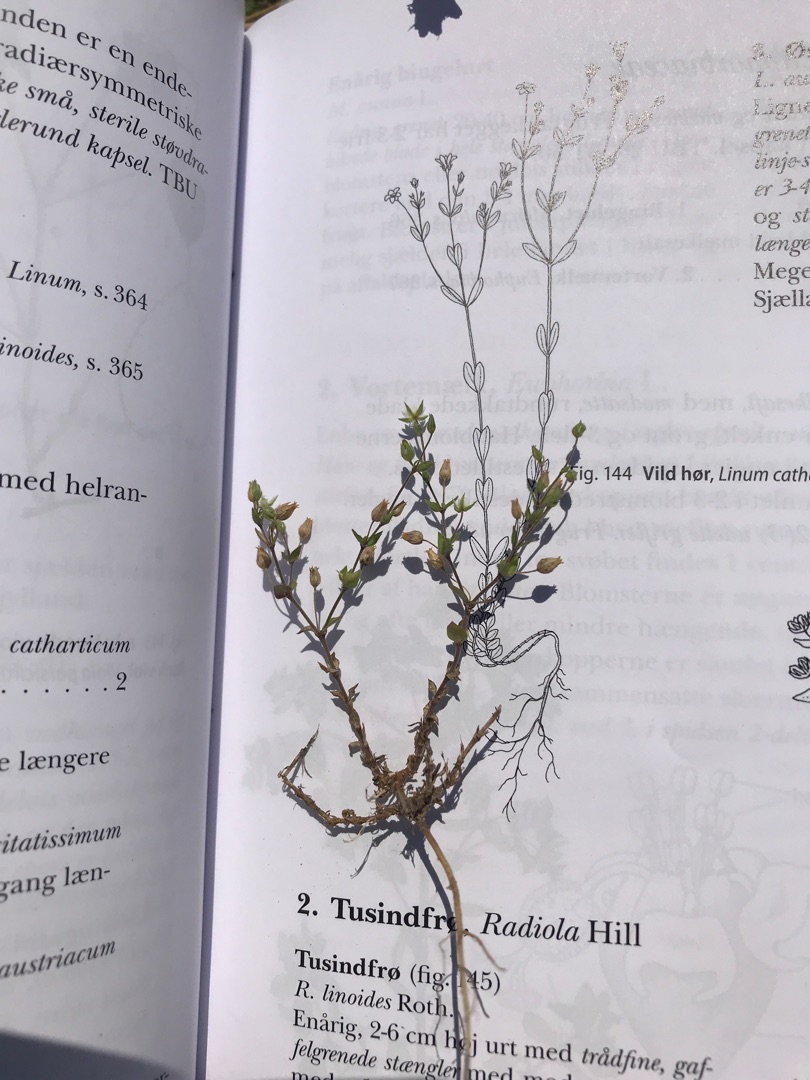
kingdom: Plantae
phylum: Tracheophyta
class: Magnoliopsida
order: Caryophyllales
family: Caryophyllaceae
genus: Arenaria
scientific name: Arenaria serpyllifolia
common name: Almindelig markarve
